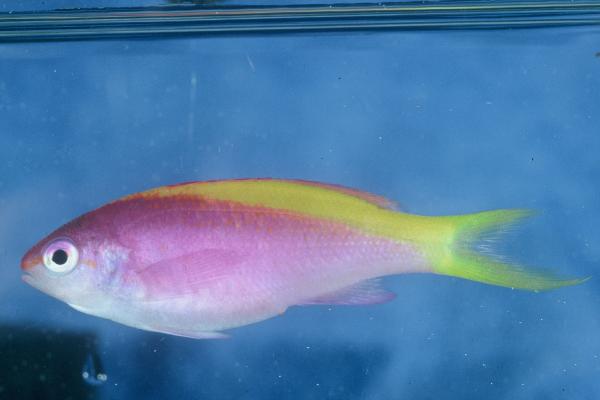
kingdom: Animalia
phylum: Chordata
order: Perciformes
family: Serranidae
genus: Pseudanthias
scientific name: Pseudanthias evansi
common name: Goldback anthias
